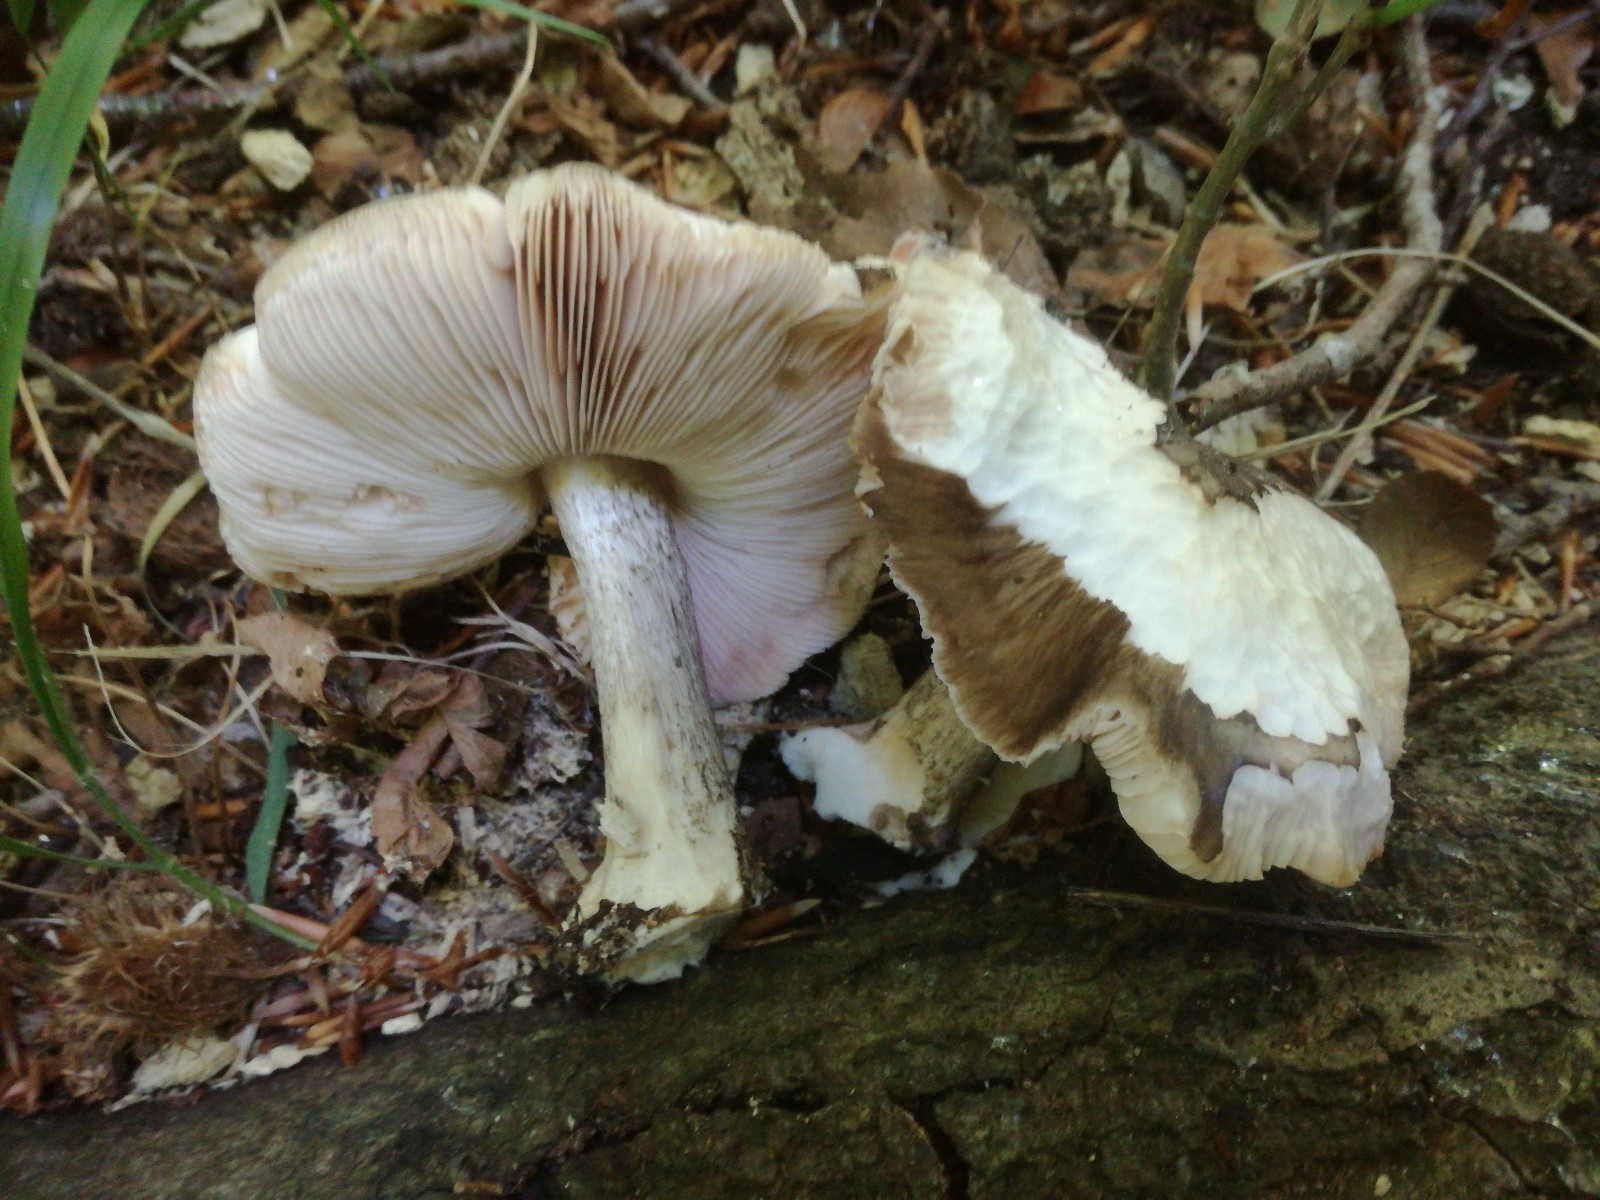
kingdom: Fungi
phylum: Basidiomycota
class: Agaricomycetes
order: Agaricales
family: Pluteaceae
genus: Pluteus
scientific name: Pluteus cervinus
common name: sodfarvet skærmhat
